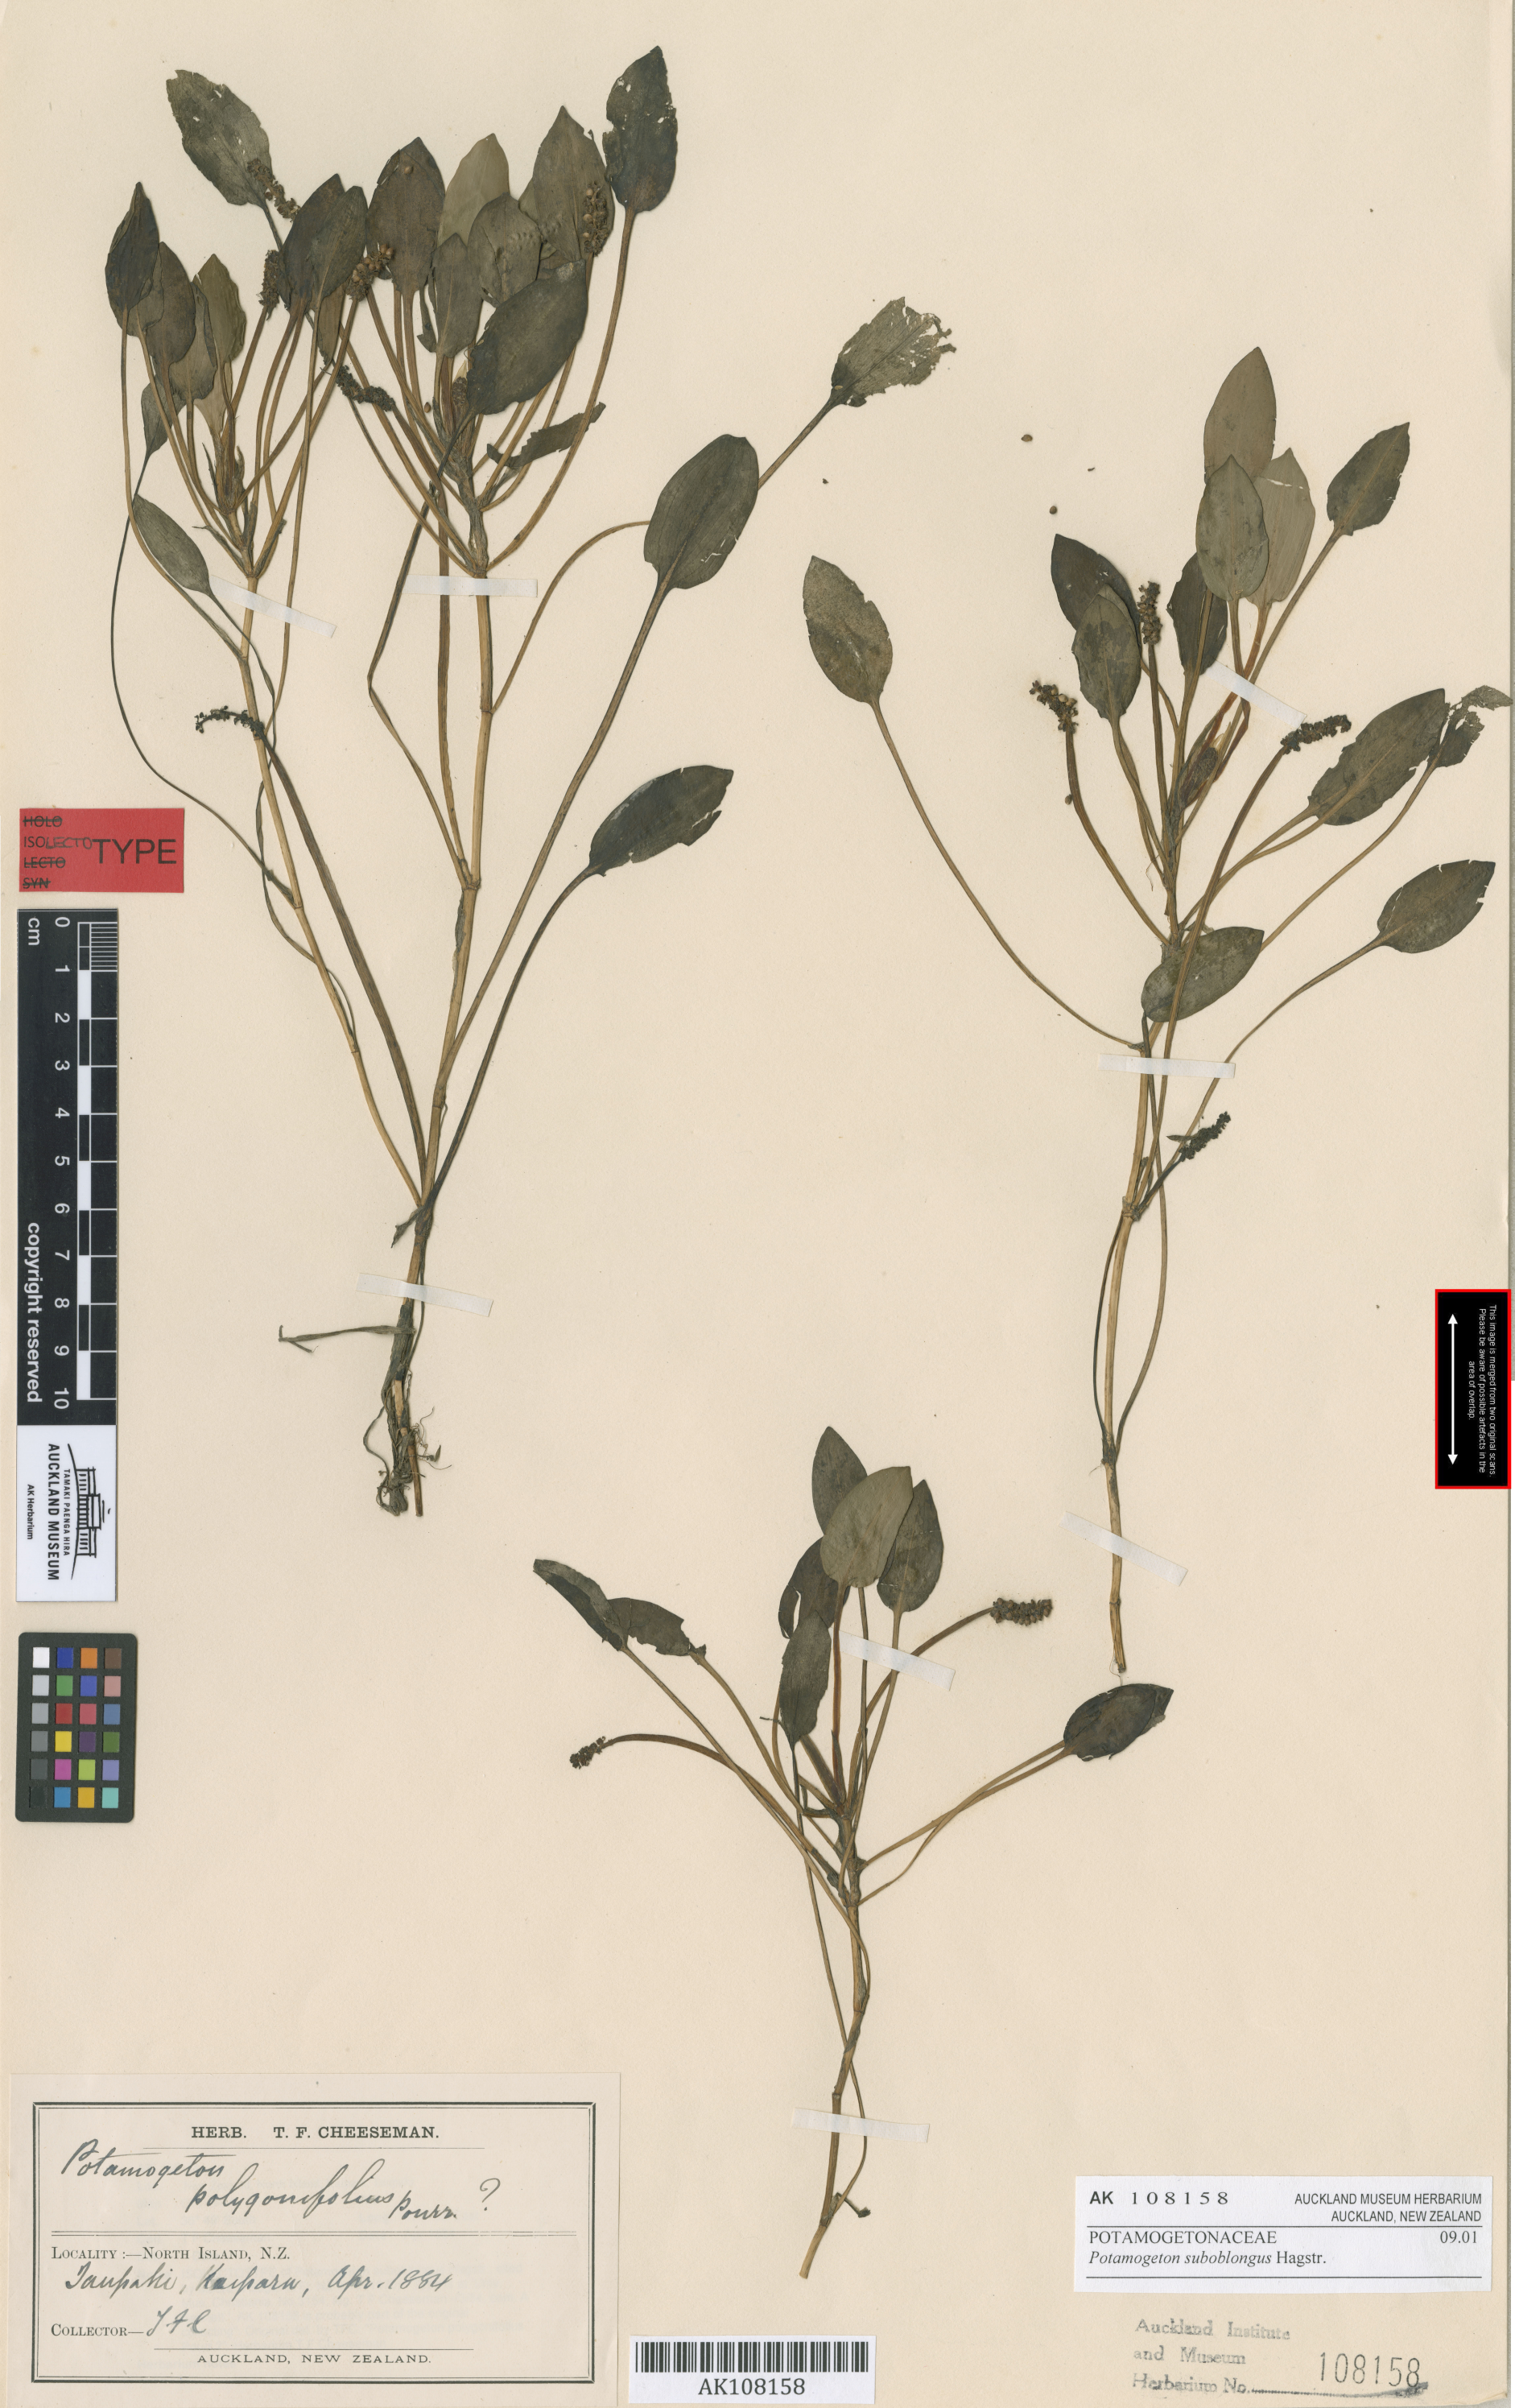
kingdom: Plantae
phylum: Tracheophyta
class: Liliopsida
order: Alismatales
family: Potamogetonaceae
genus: Potamogeton
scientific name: Potamogeton suboblongus
